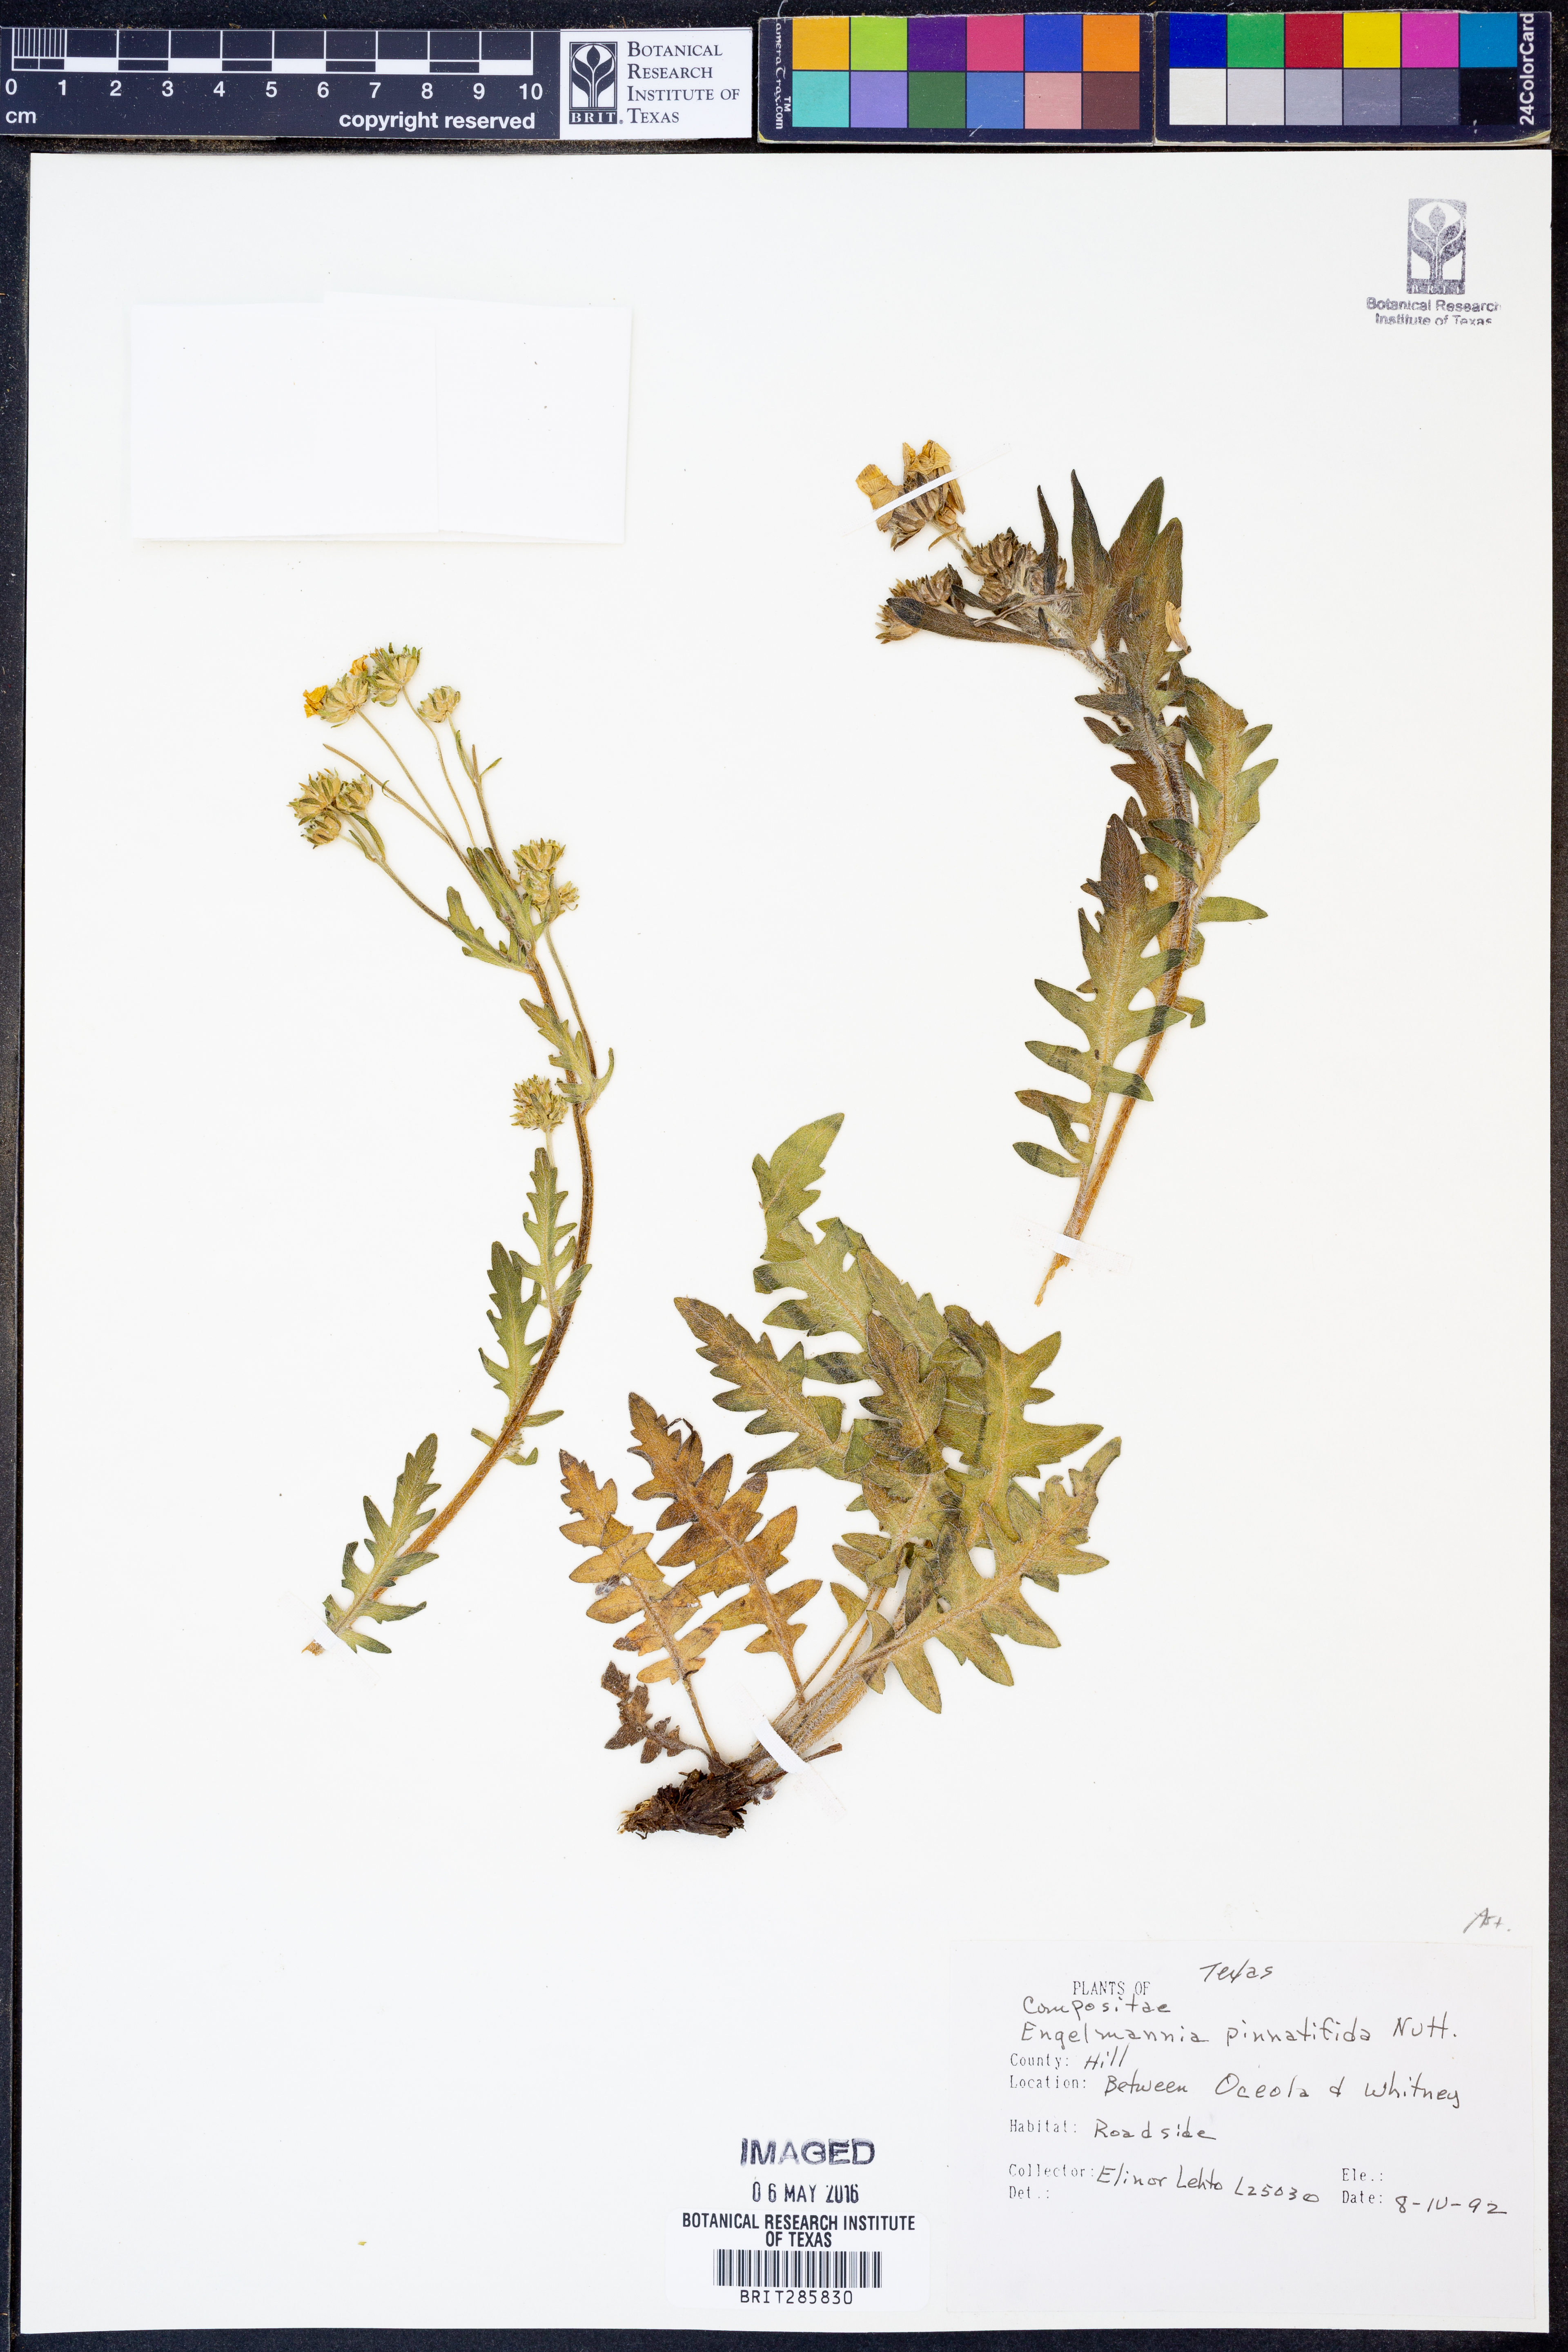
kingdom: Plantae
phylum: Tracheophyta
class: Magnoliopsida
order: Asterales
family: Asteraceae
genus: Engelmannia
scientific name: Engelmannia peristenia
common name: Engelmann's daisy
